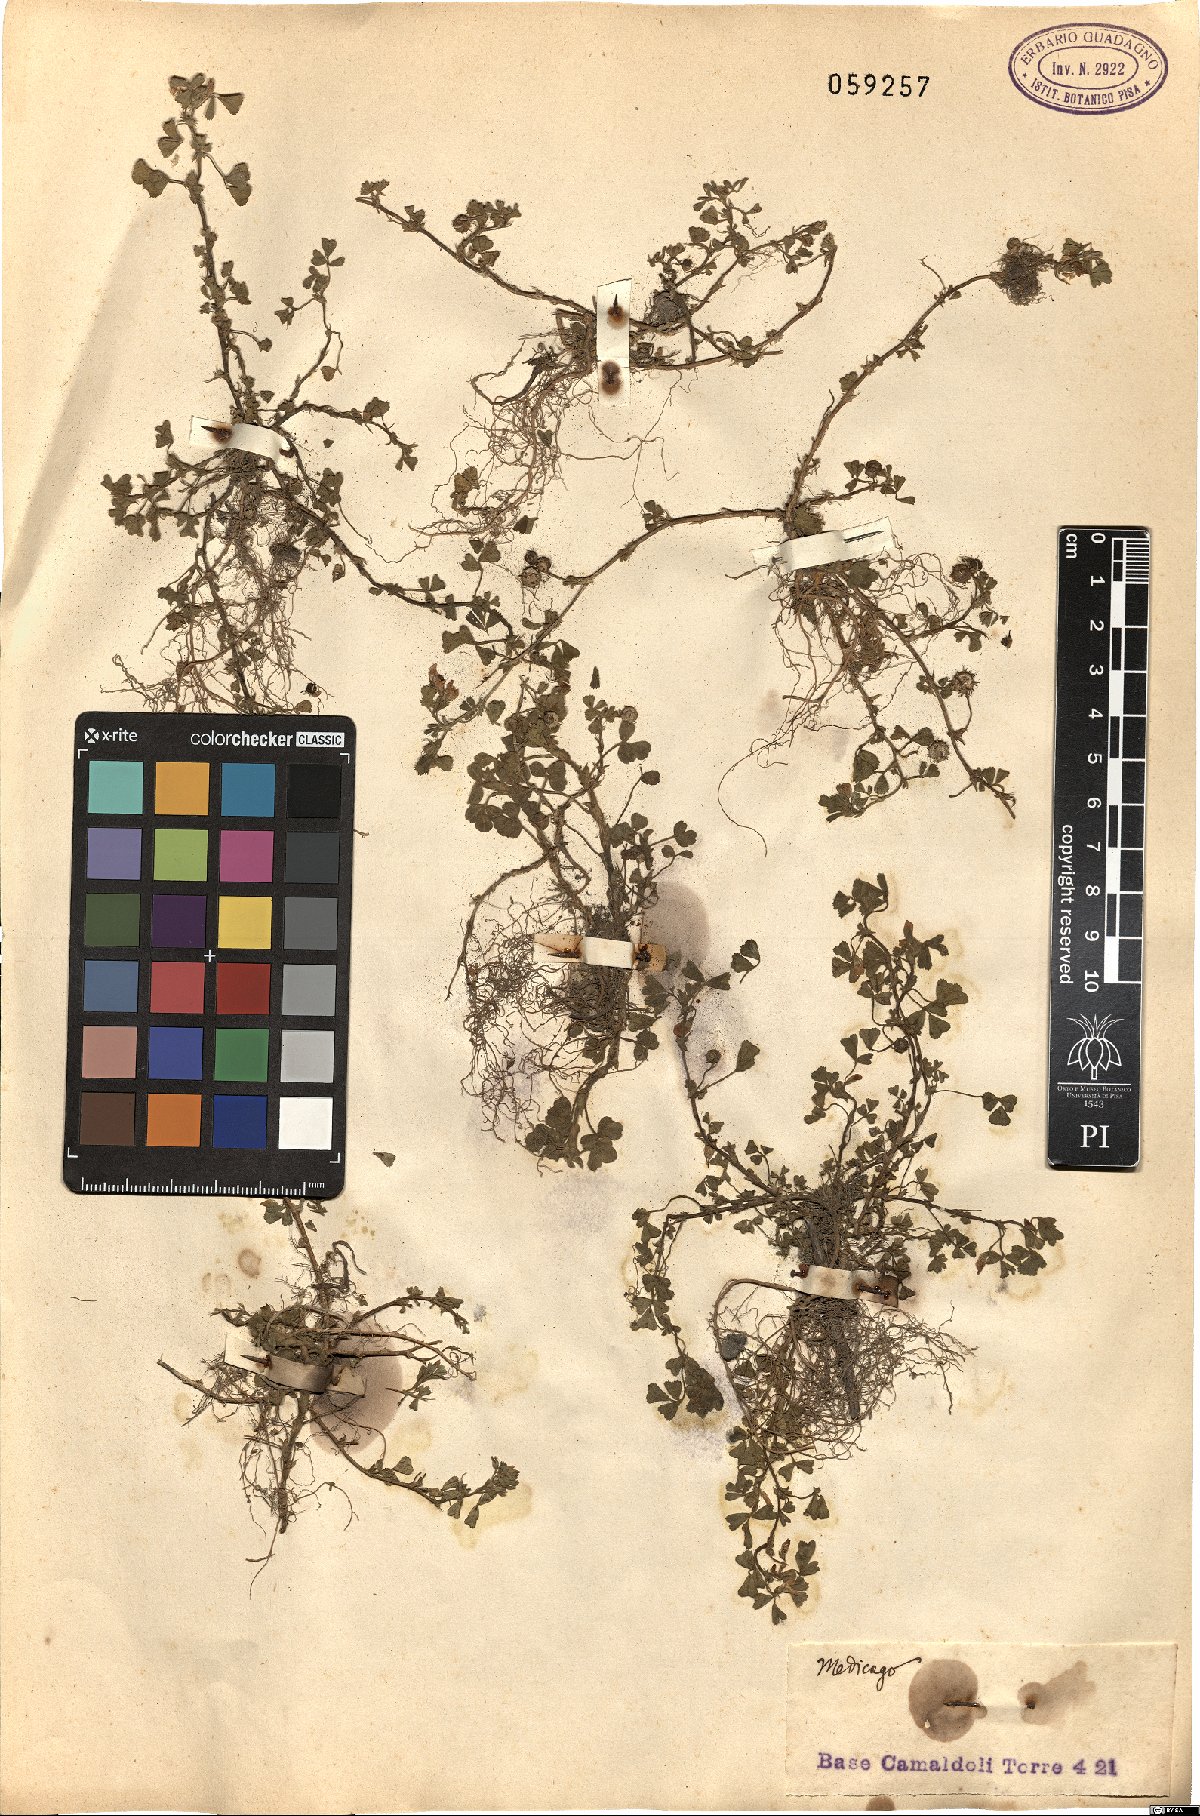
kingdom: Plantae
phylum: Tracheophyta
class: Magnoliopsida
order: Fabales
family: Fabaceae
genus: Medicago
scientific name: Medicago
